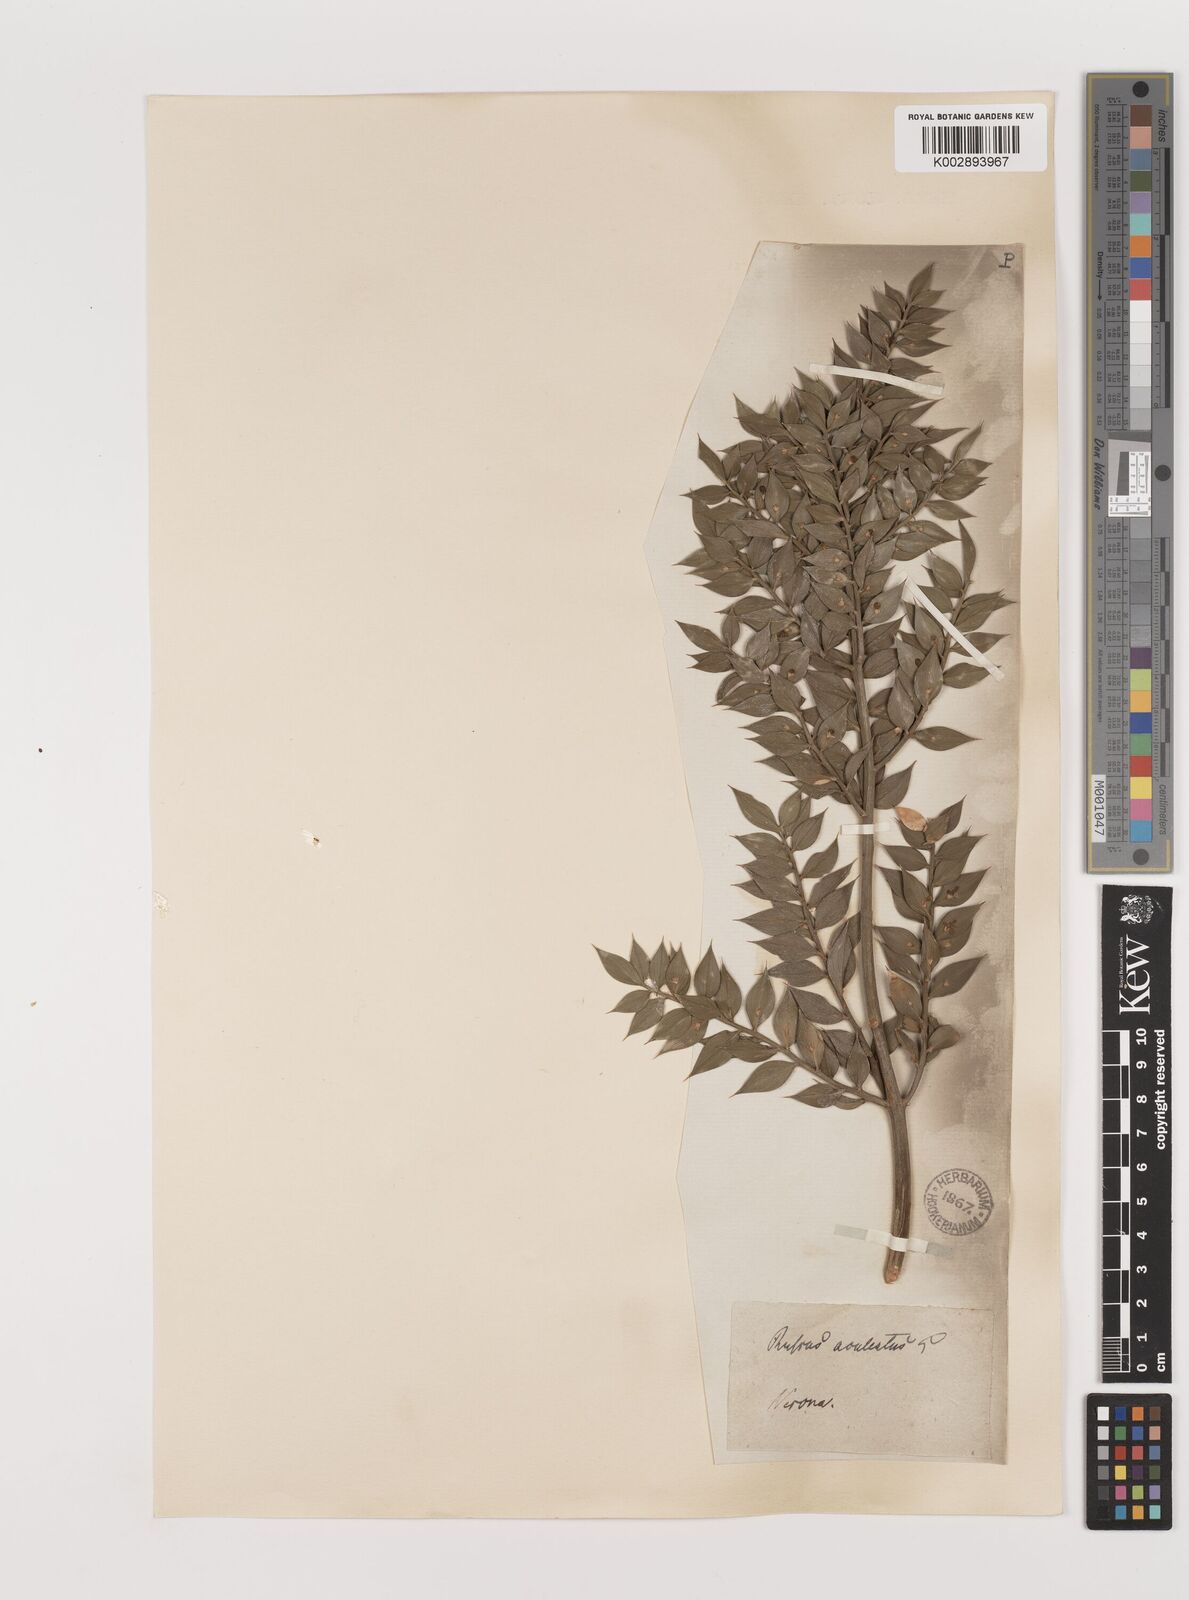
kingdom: Plantae
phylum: Tracheophyta
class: Liliopsida
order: Asparagales
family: Asparagaceae
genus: Ruscus
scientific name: Ruscus
